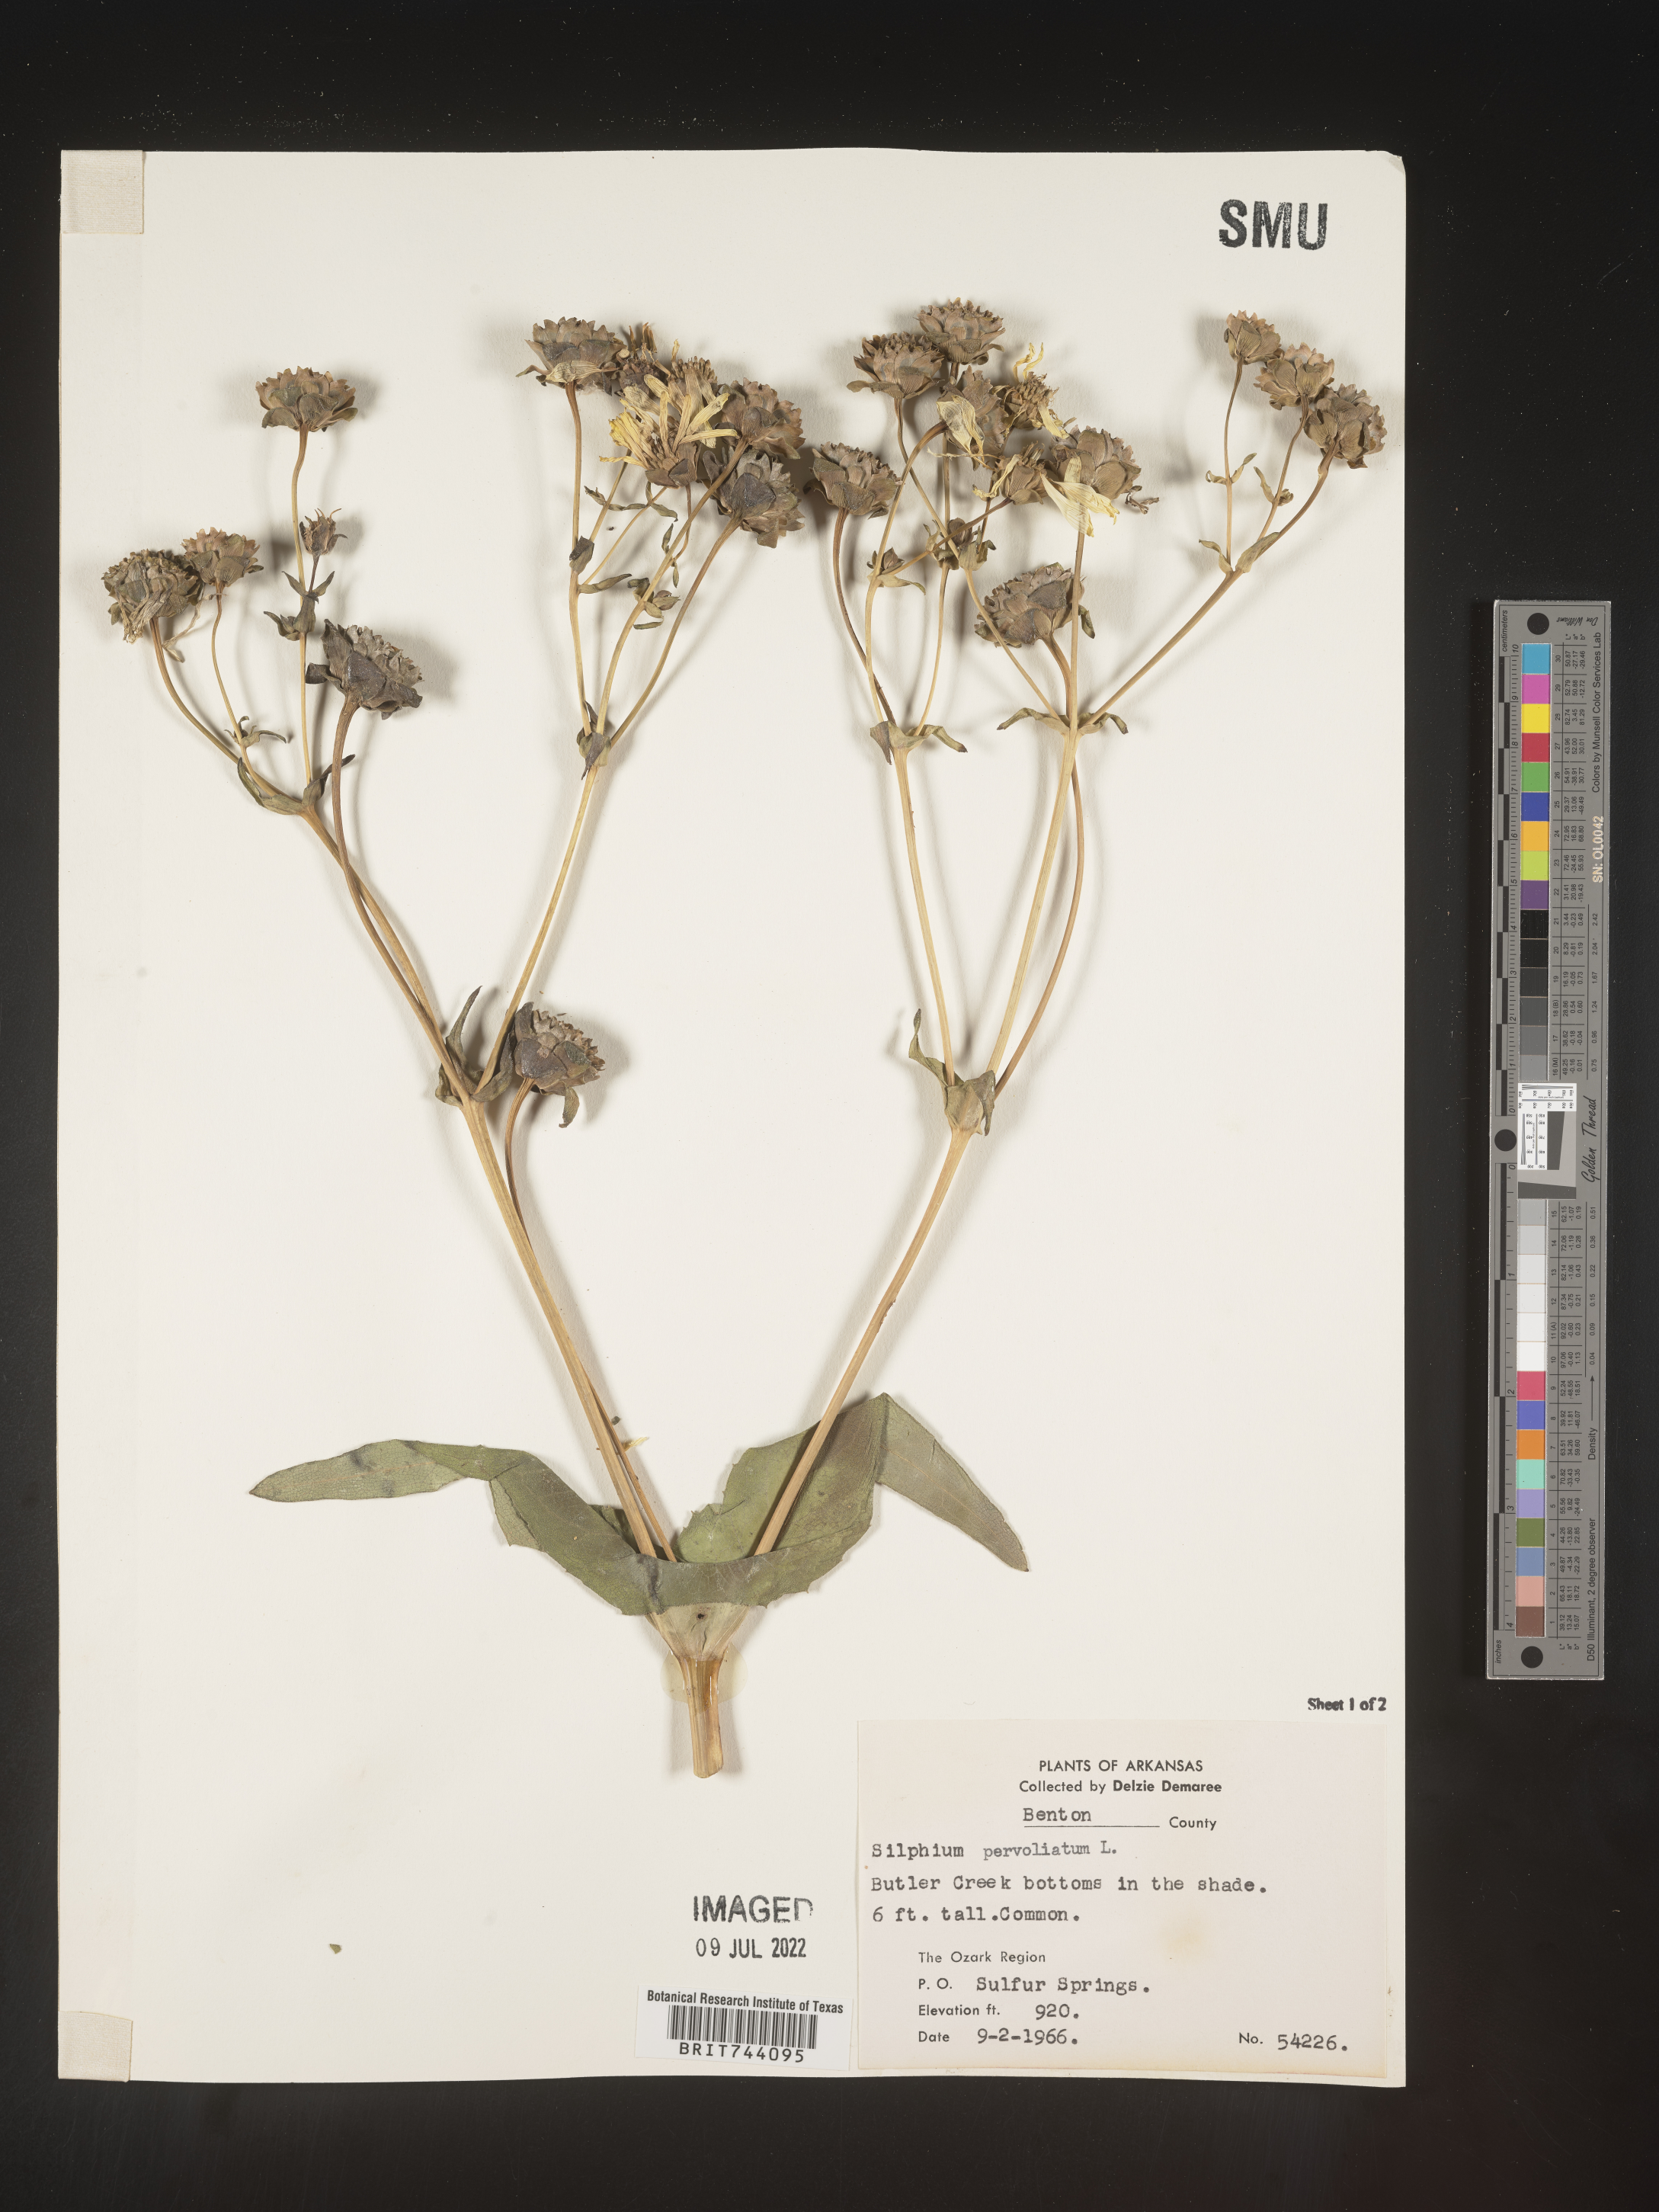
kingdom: Plantae
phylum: Tracheophyta
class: Magnoliopsida
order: Asterales
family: Asteraceae
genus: Silphium
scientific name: Silphium perfoliatum
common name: Cup-plant
